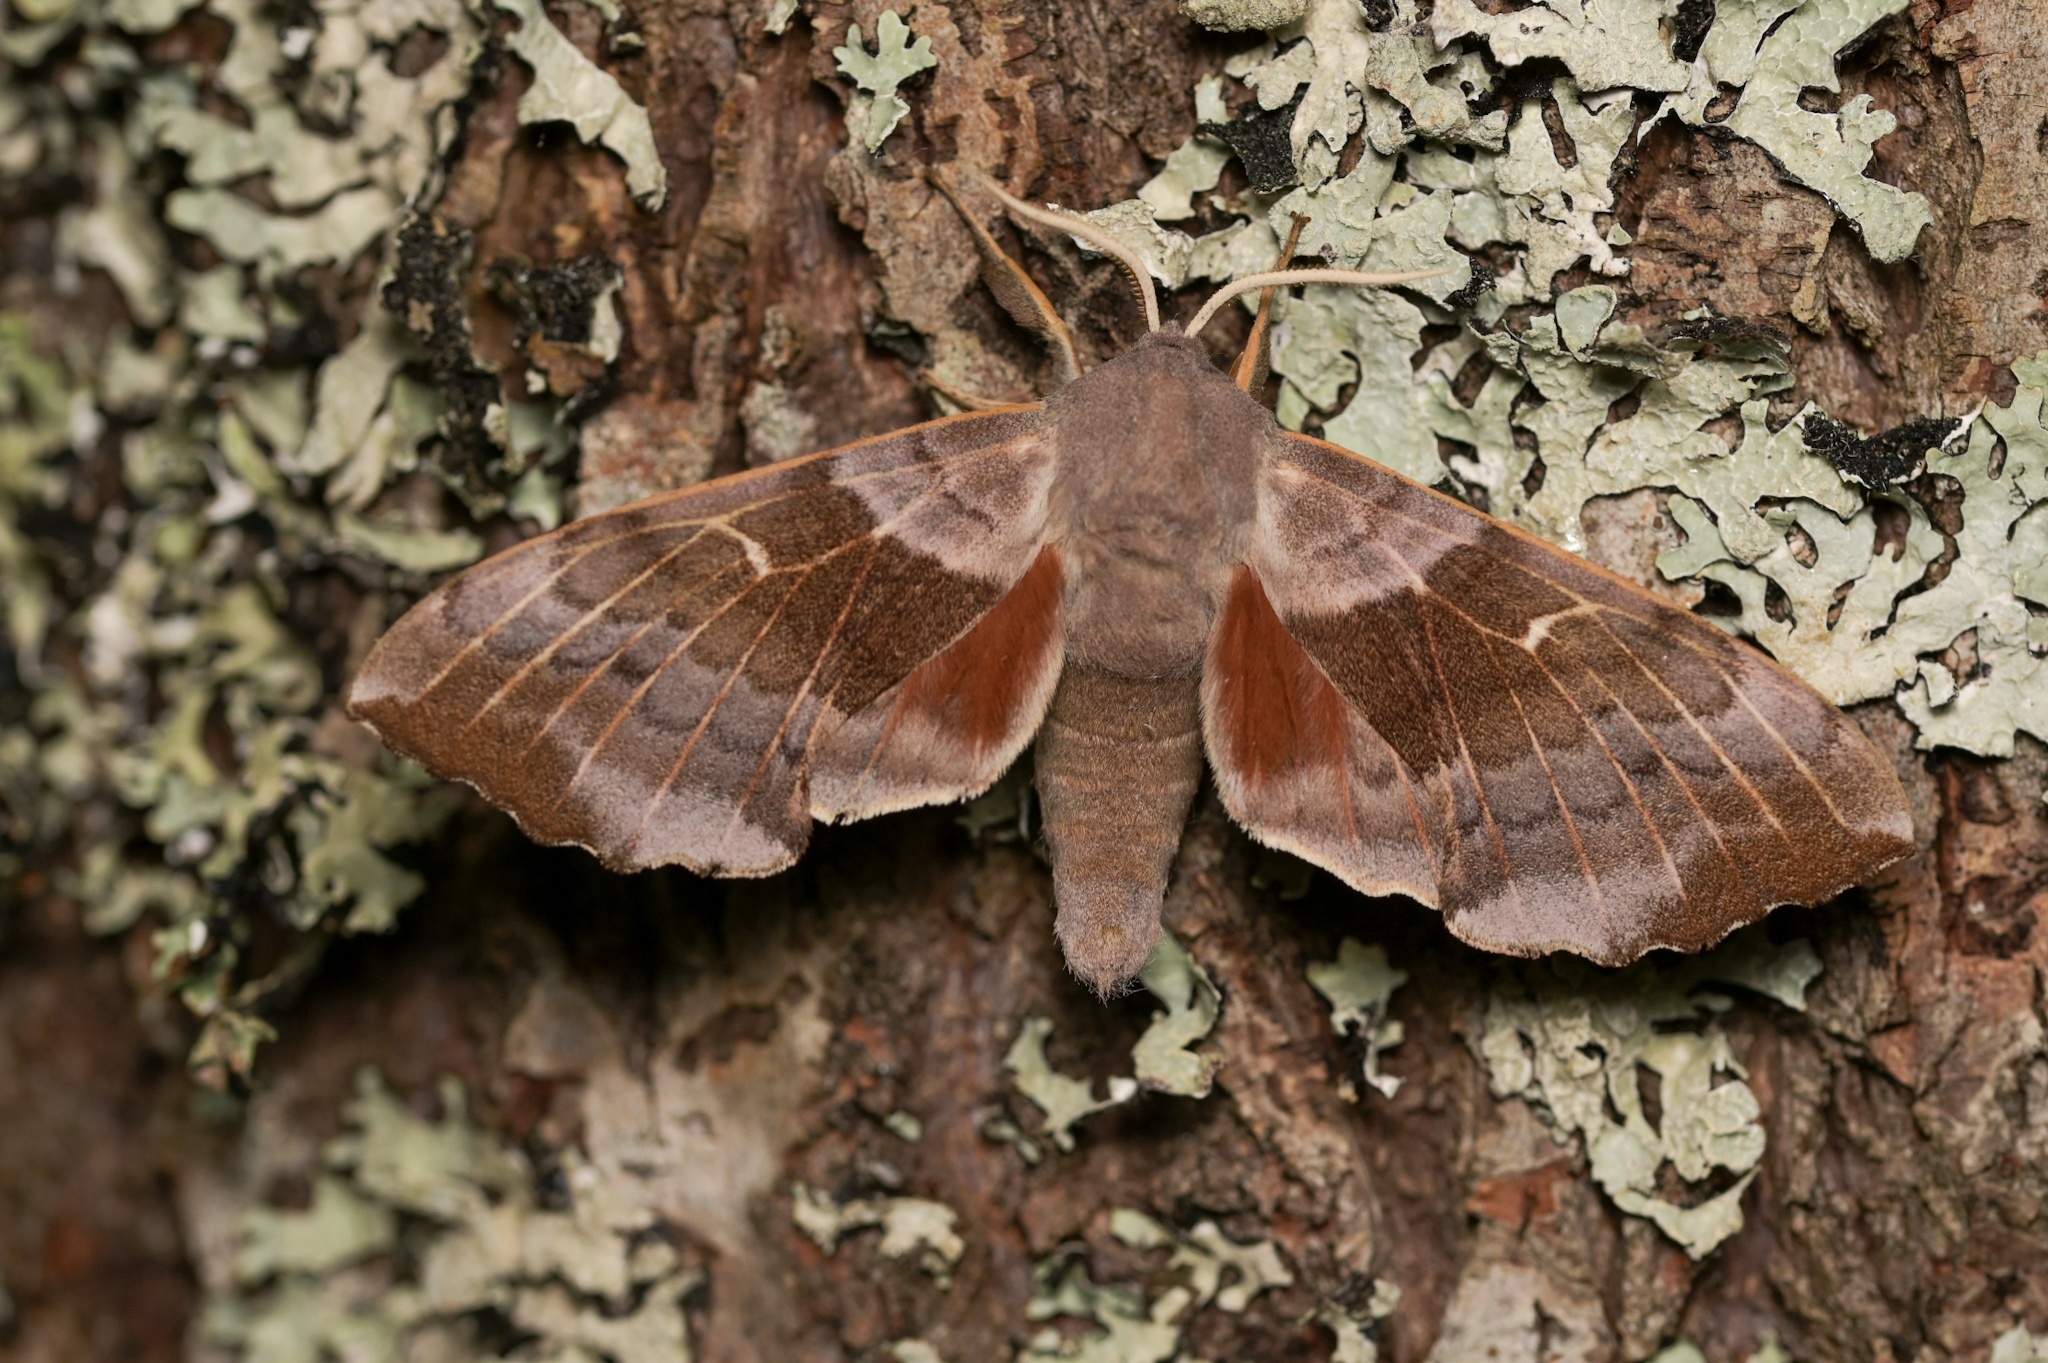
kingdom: Animalia
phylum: Arthropoda
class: Insecta
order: Lepidoptera
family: Sphingidae
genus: Laothoe
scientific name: Laothoe populi
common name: Poplar hawk-moth
